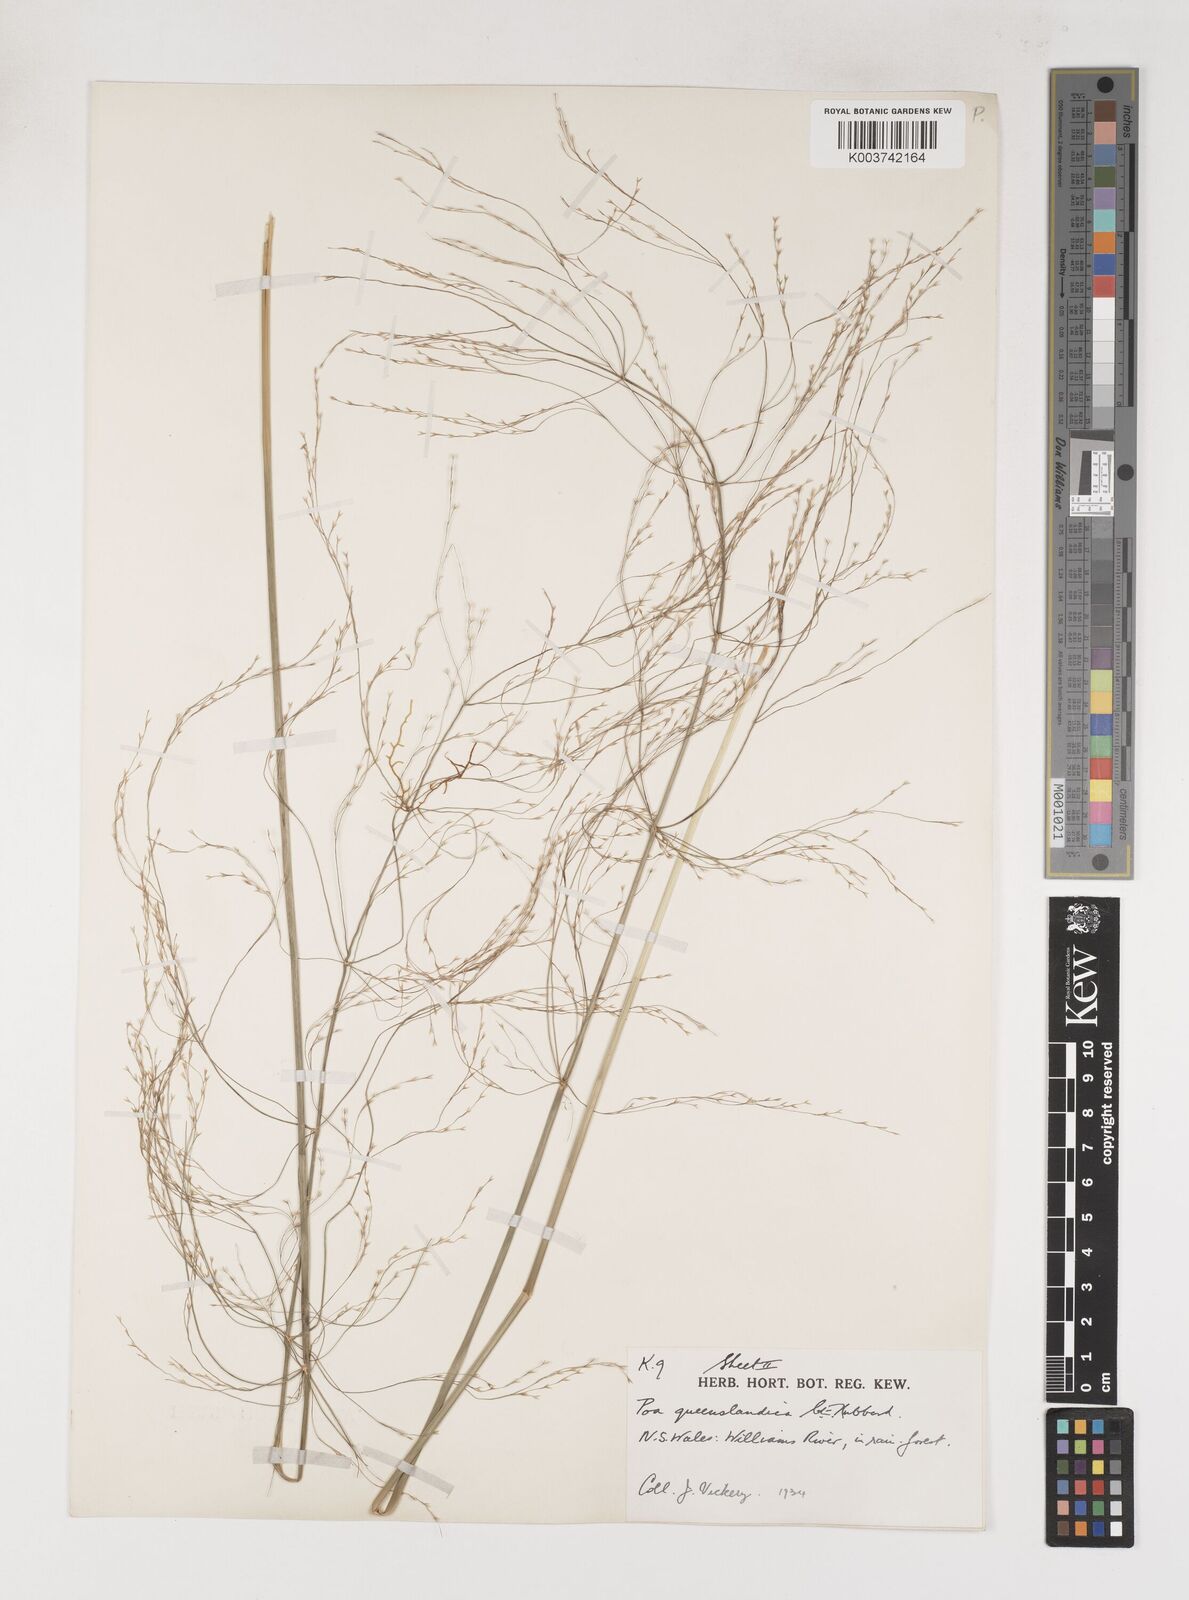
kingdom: Plantae
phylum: Tracheophyta
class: Liliopsida
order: Poales
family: Poaceae
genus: Sylvipoa
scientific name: Sylvipoa queenslandica
